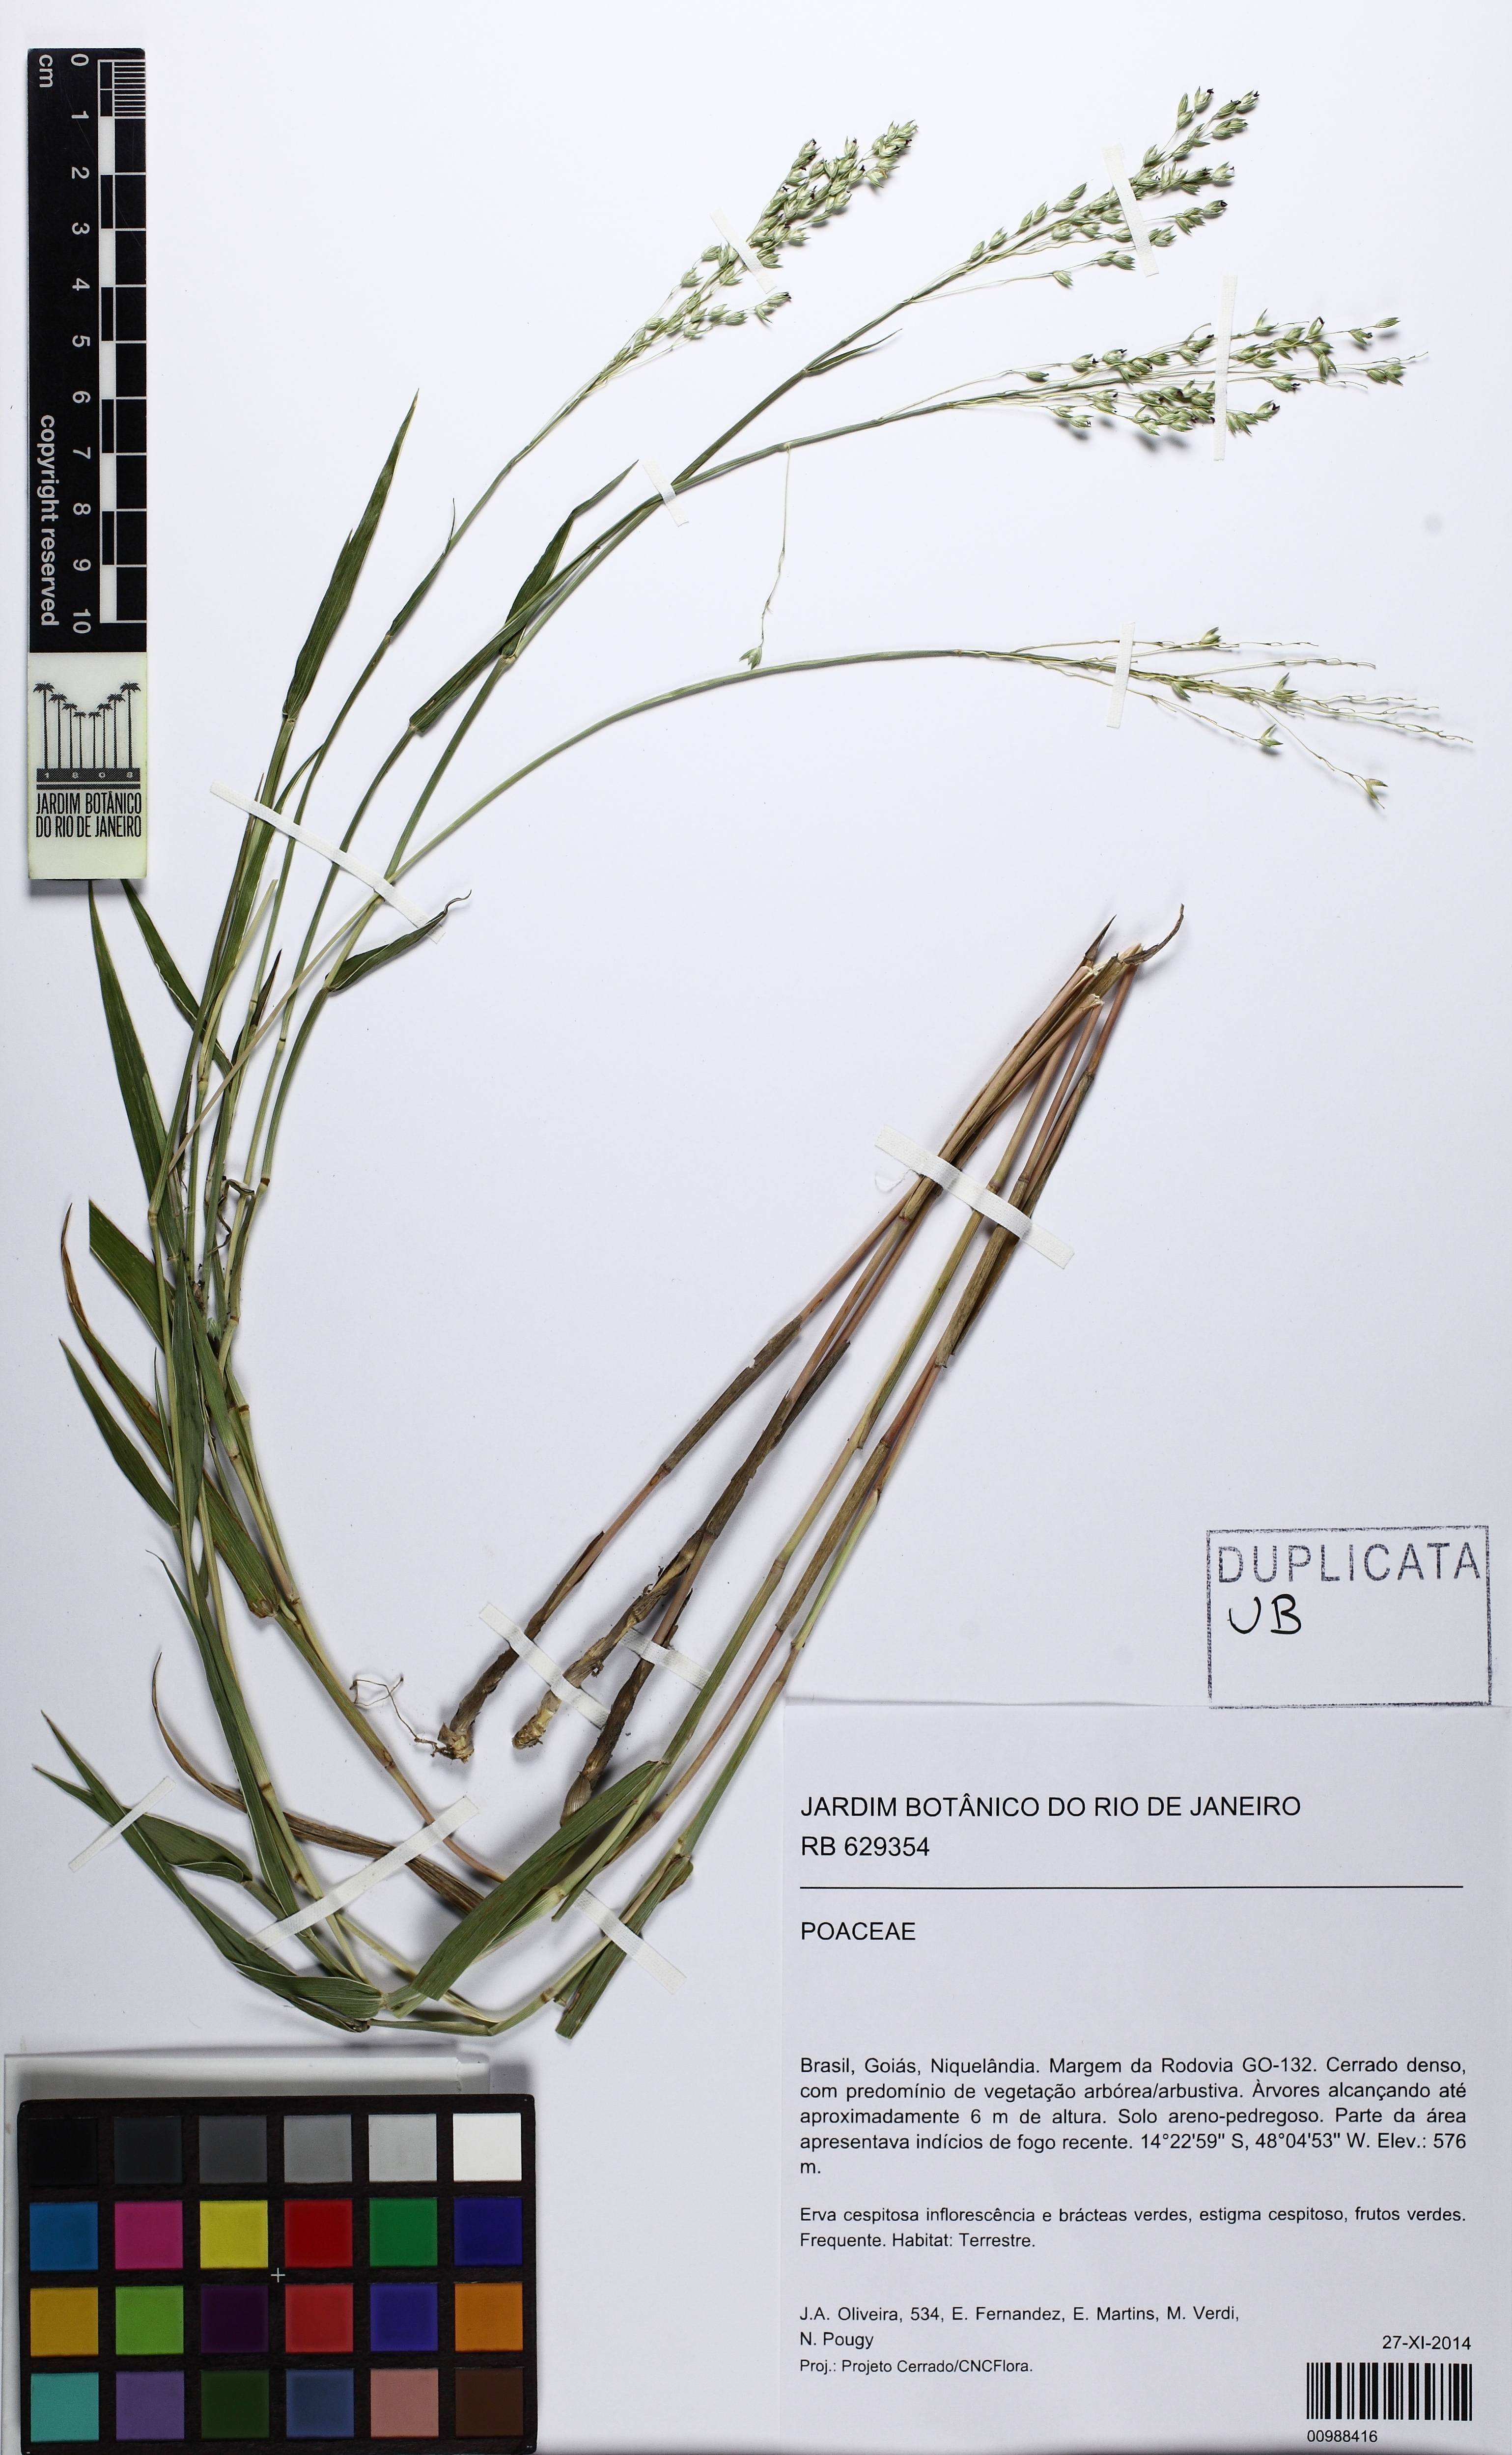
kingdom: Plantae
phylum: Tracheophyta
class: Liliopsida
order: Poales
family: Poaceae
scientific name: Poaceae
